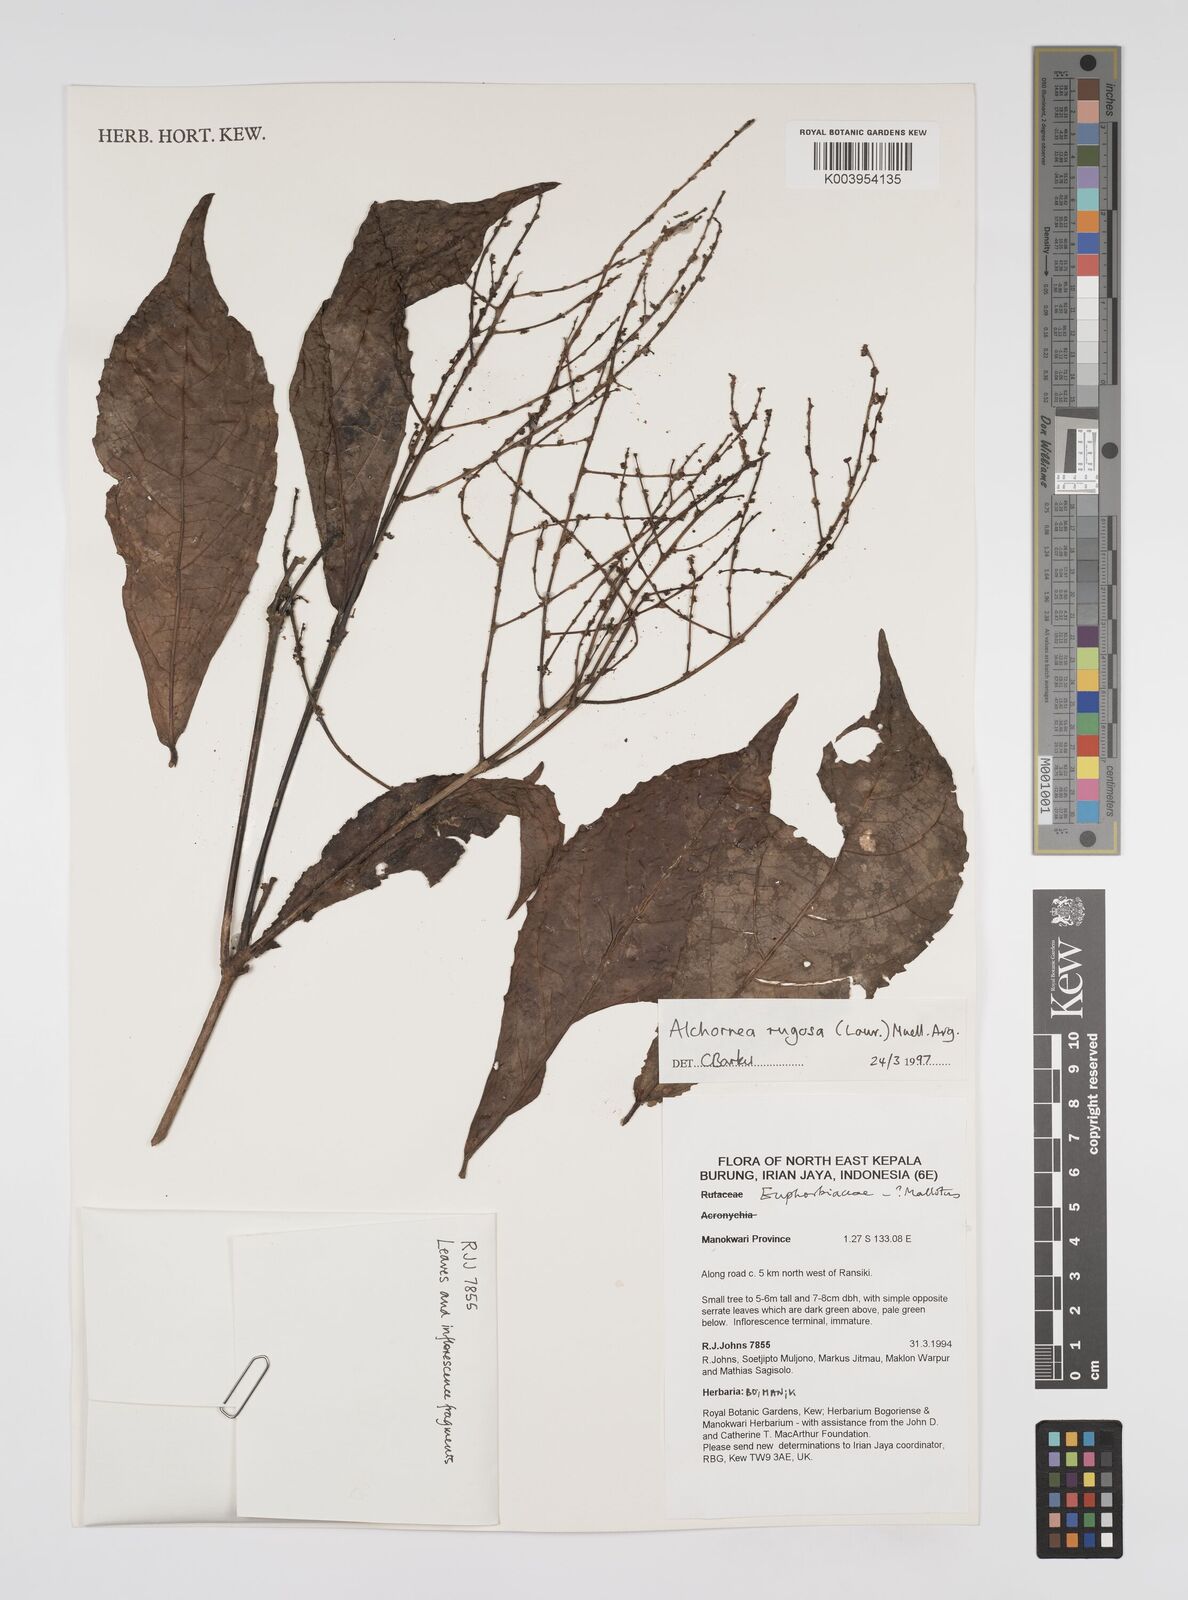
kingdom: Plantae
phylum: Tracheophyta
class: Magnoliopsida
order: Malpighiales
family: Euphorbiaceae
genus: Alchornea
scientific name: Alchornea rugosa
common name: Alchorntree
